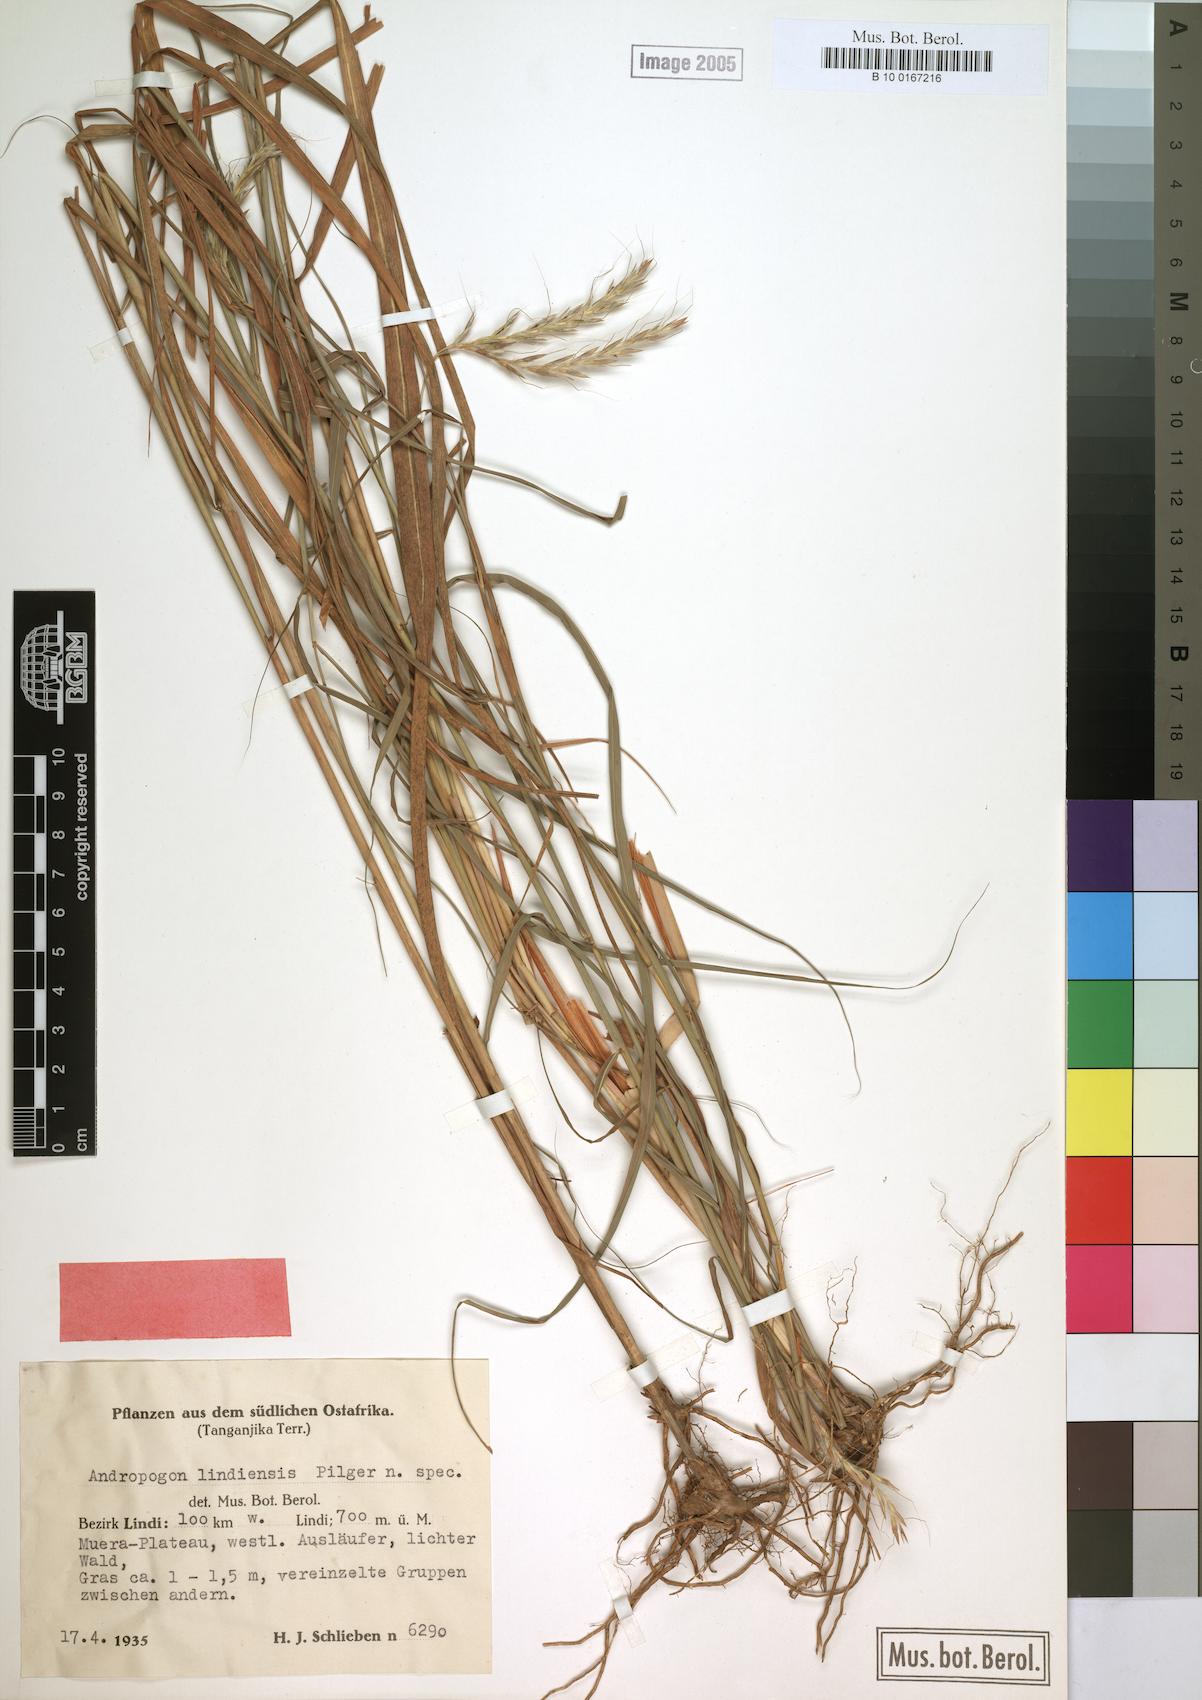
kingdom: Plantae
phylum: Tracheophyta
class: Liliopsida
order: Poales
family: Poaceae
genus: Andropogon
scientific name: Andropogon chinensis
